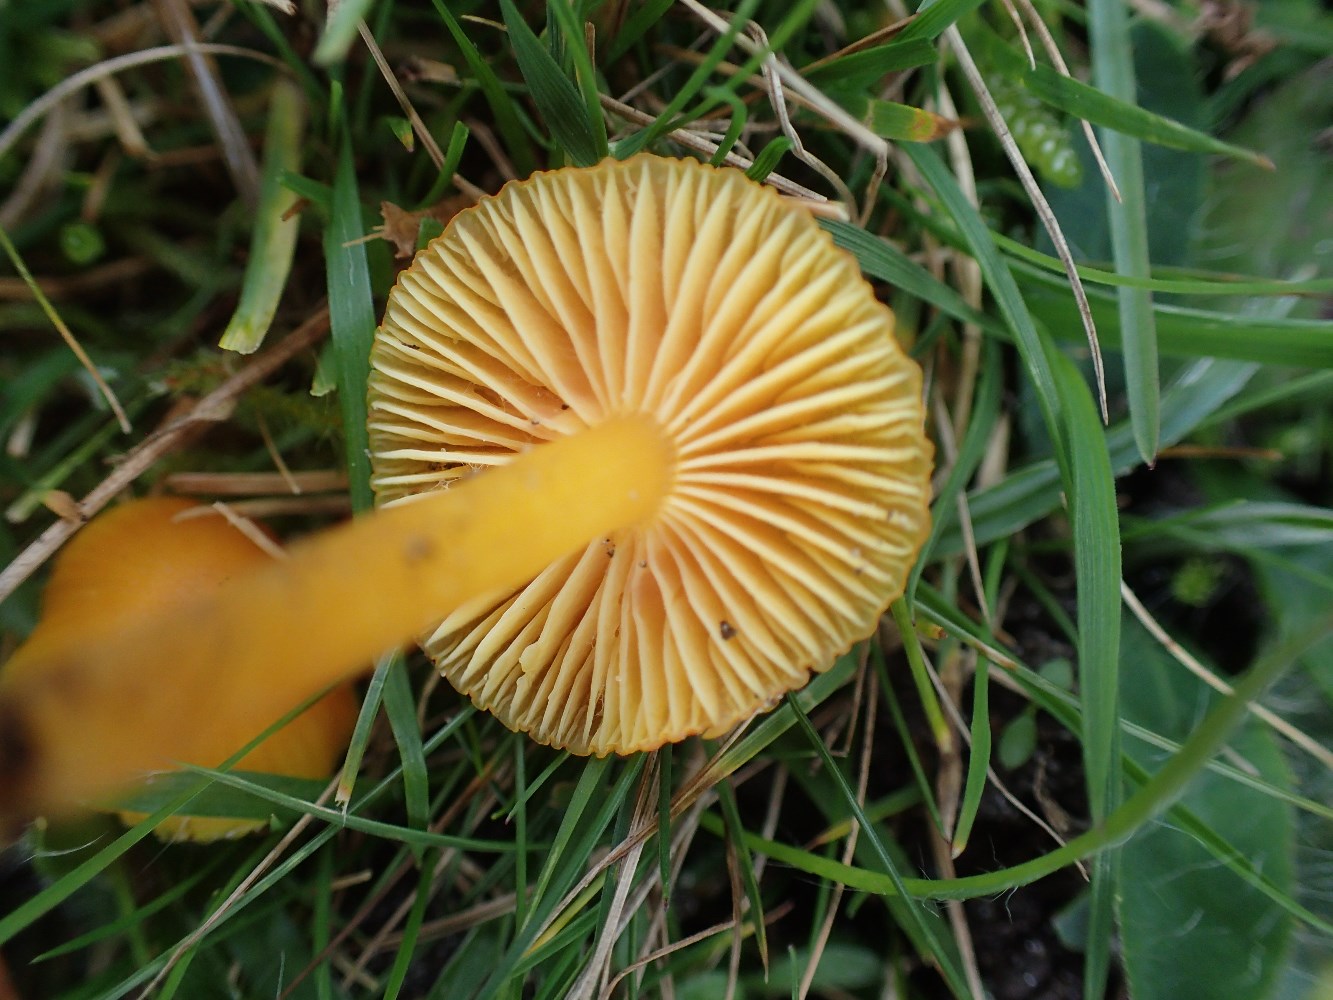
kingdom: Fungi
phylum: Basidiomycota
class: Agaricomycetes
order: Agaricales
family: Hygrophoraceae
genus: Hygrocybe
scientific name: Hygrocybe ceracea
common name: voksgul vokshat
